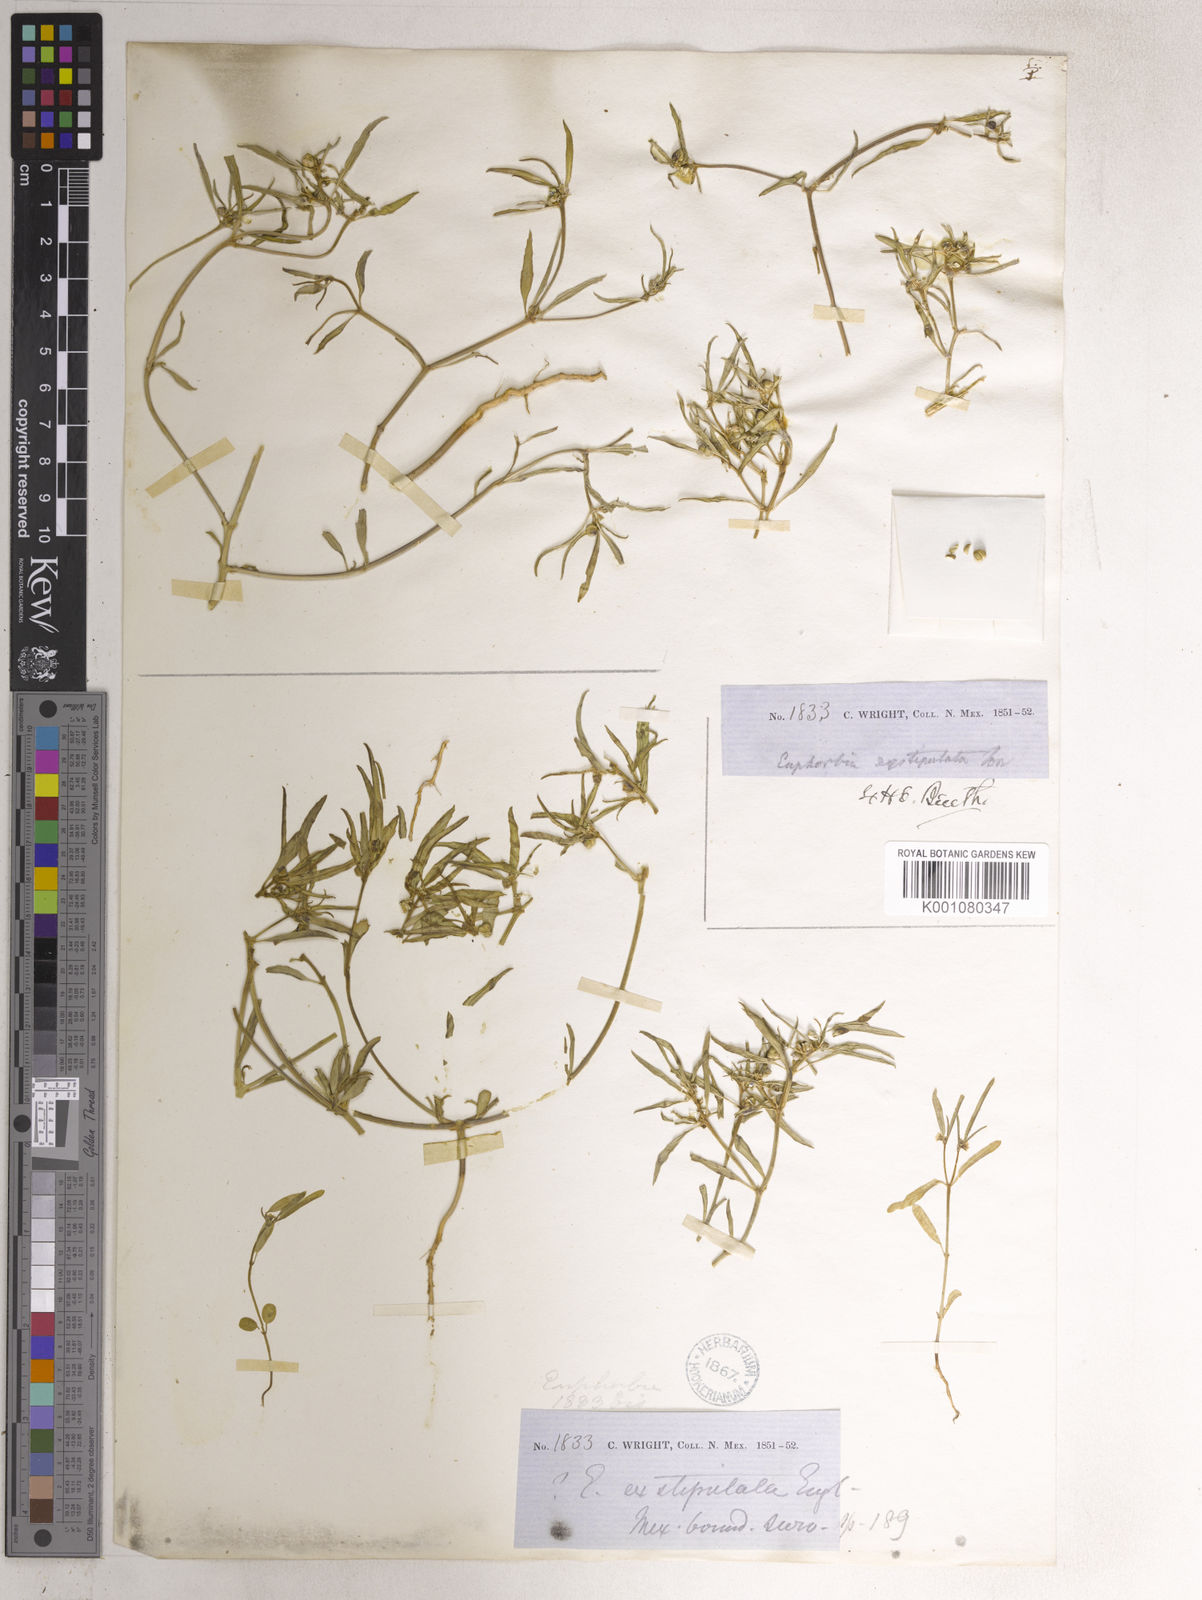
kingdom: Plantae
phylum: Tracheophyta
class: Magnoliopsida
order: Malpighiales
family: Euphorbiaceae
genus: Euphorbia
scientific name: Euphorbia
